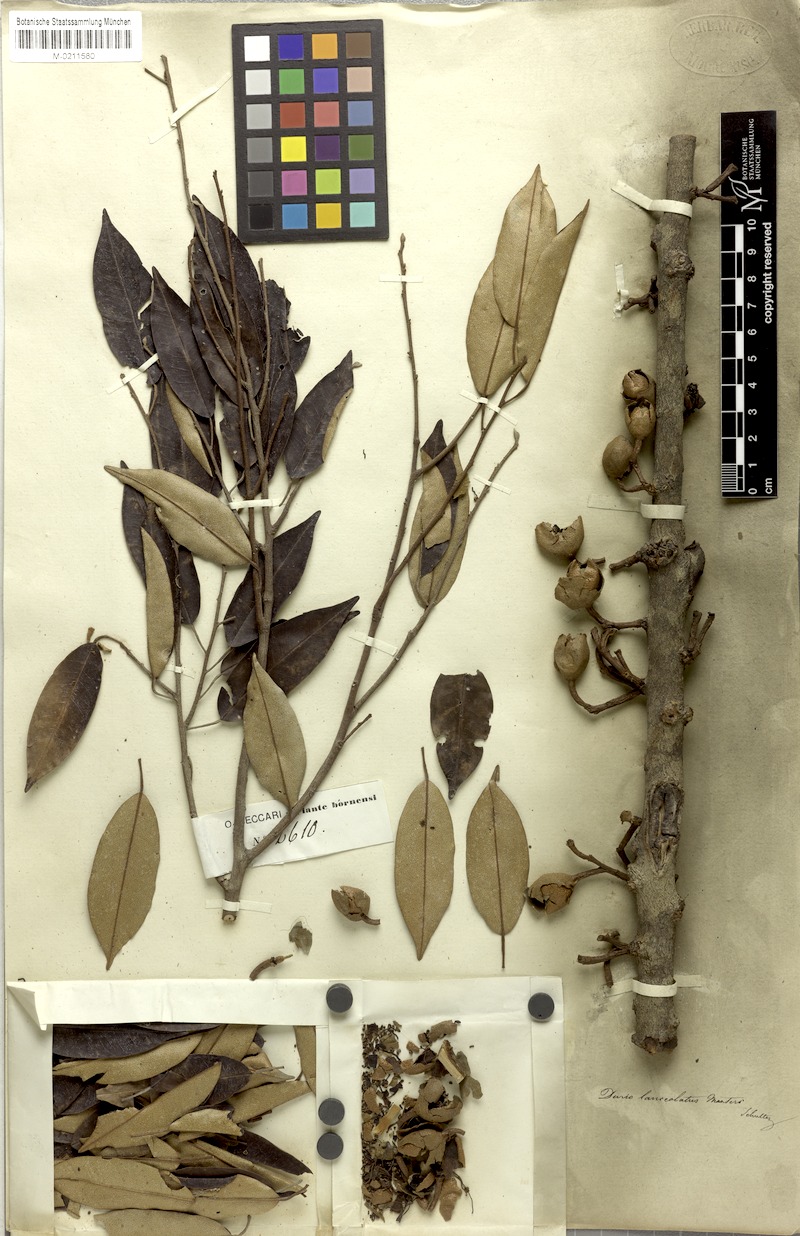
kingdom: Plantae
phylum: Tracheophyta
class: Magnoliopsida
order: Malvales
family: Malvaceae
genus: Durio
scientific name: Durio lanceolatus
